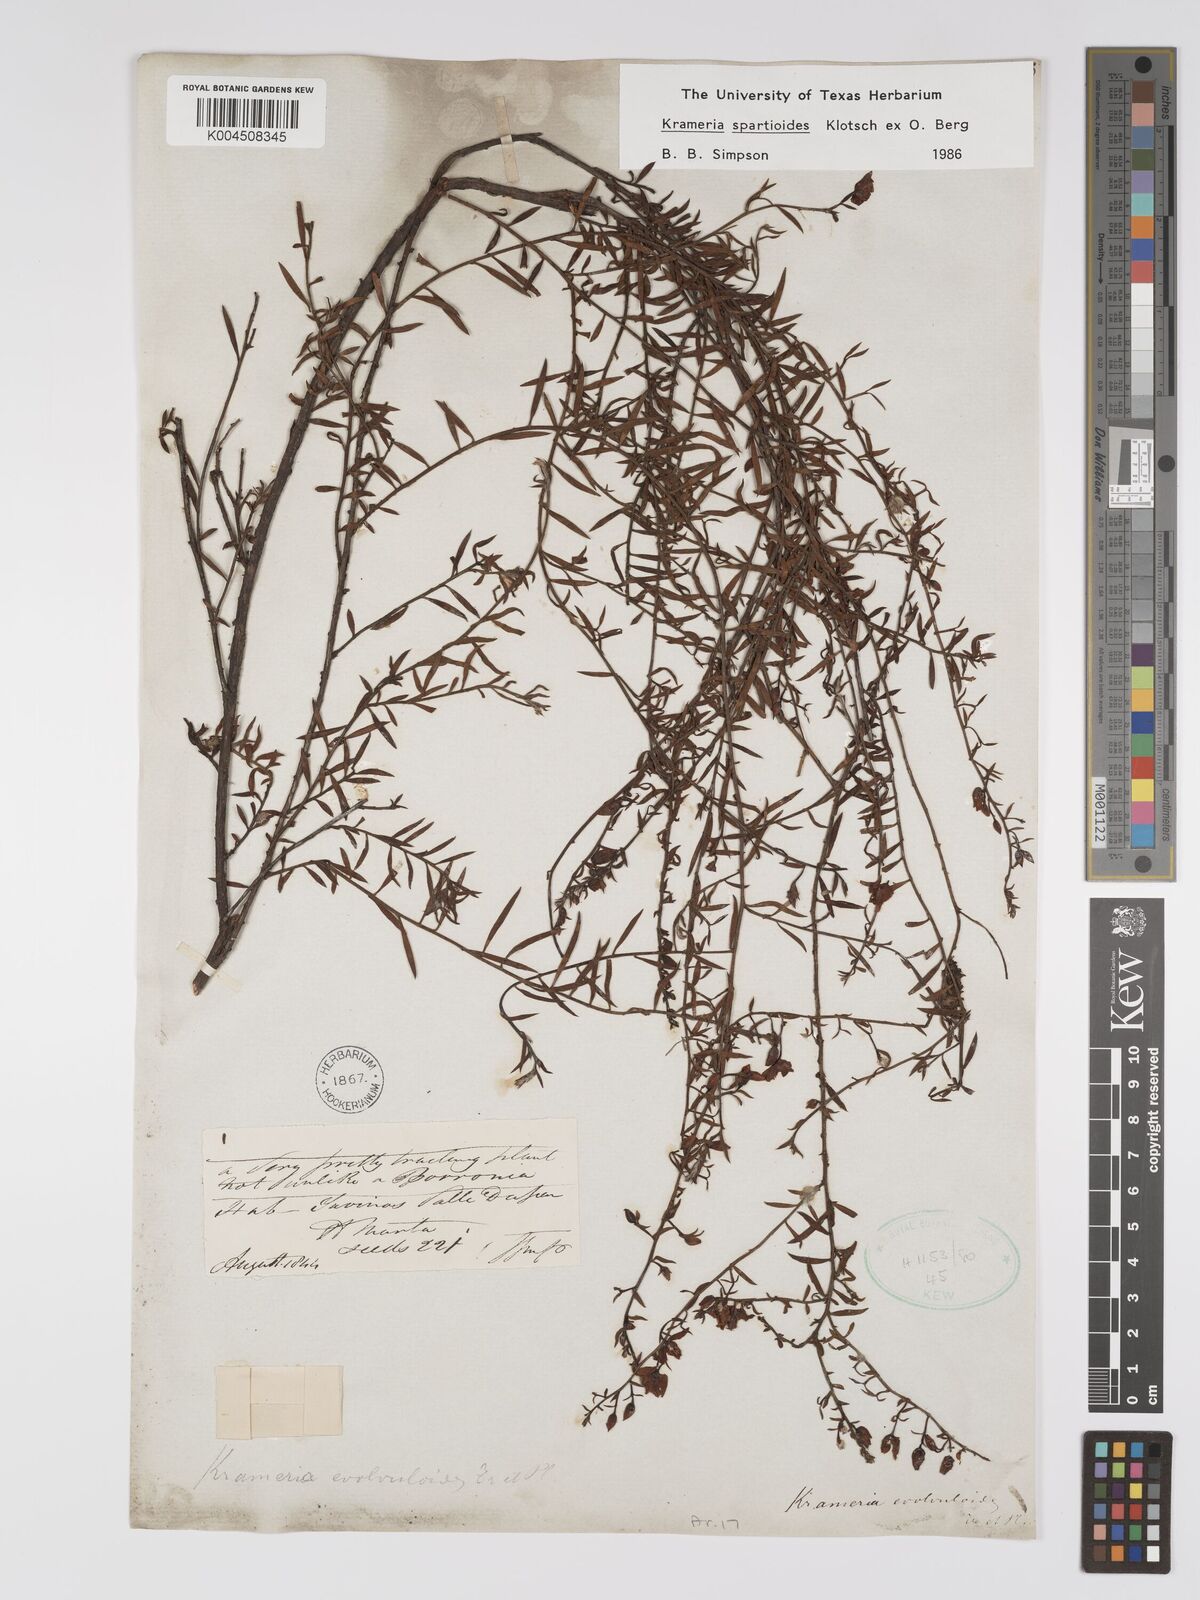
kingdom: Plantae
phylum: Tracheophyta
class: Magnoliopsida
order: Zygophyllales
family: Krameriaceae
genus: Krameria
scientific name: Krameria spartioides
